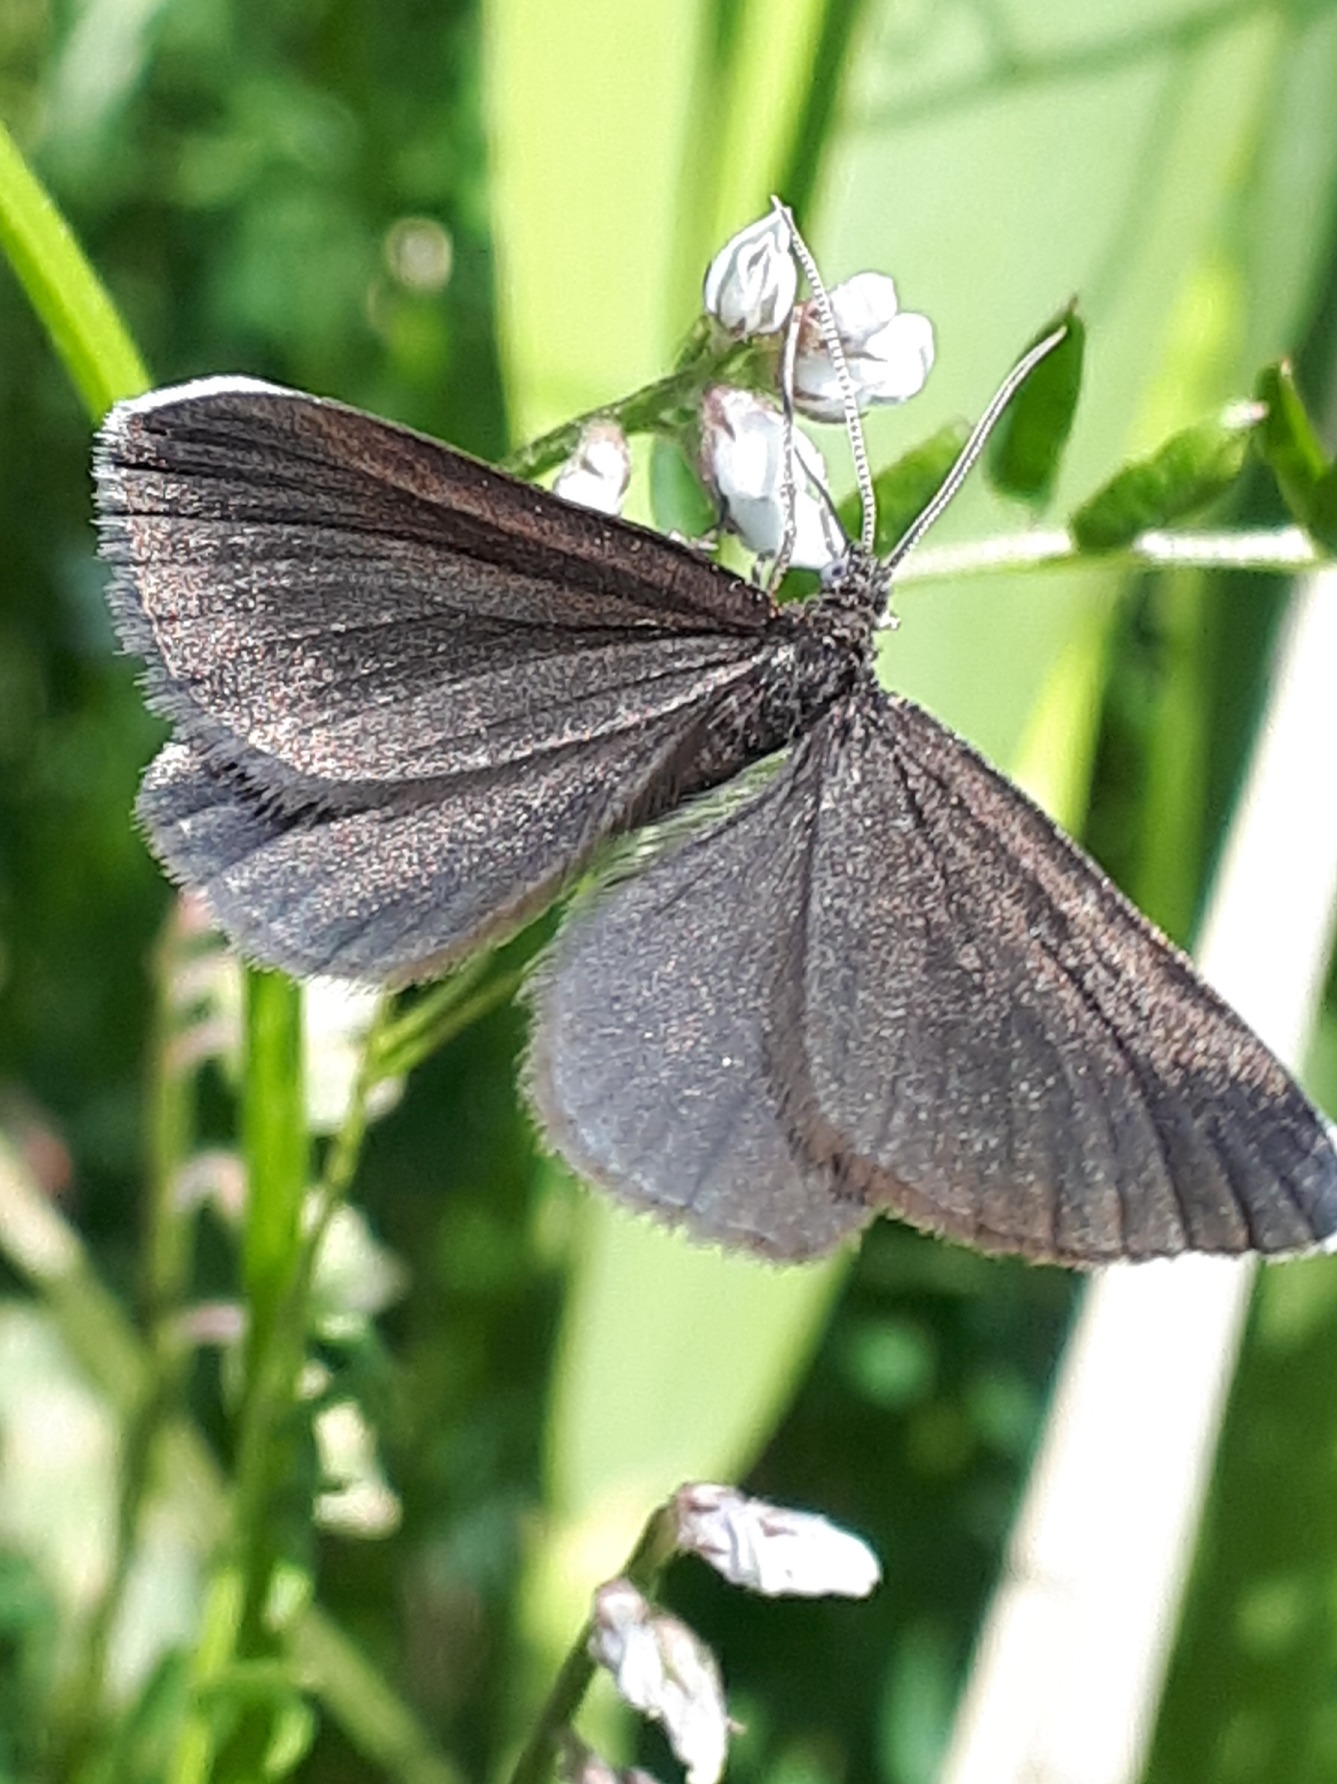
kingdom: Animalia
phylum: Arthropoda
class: Insecta
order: Lepidoptera
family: Geometridae
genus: Odezia
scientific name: Odezia atrata
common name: Sort måler
